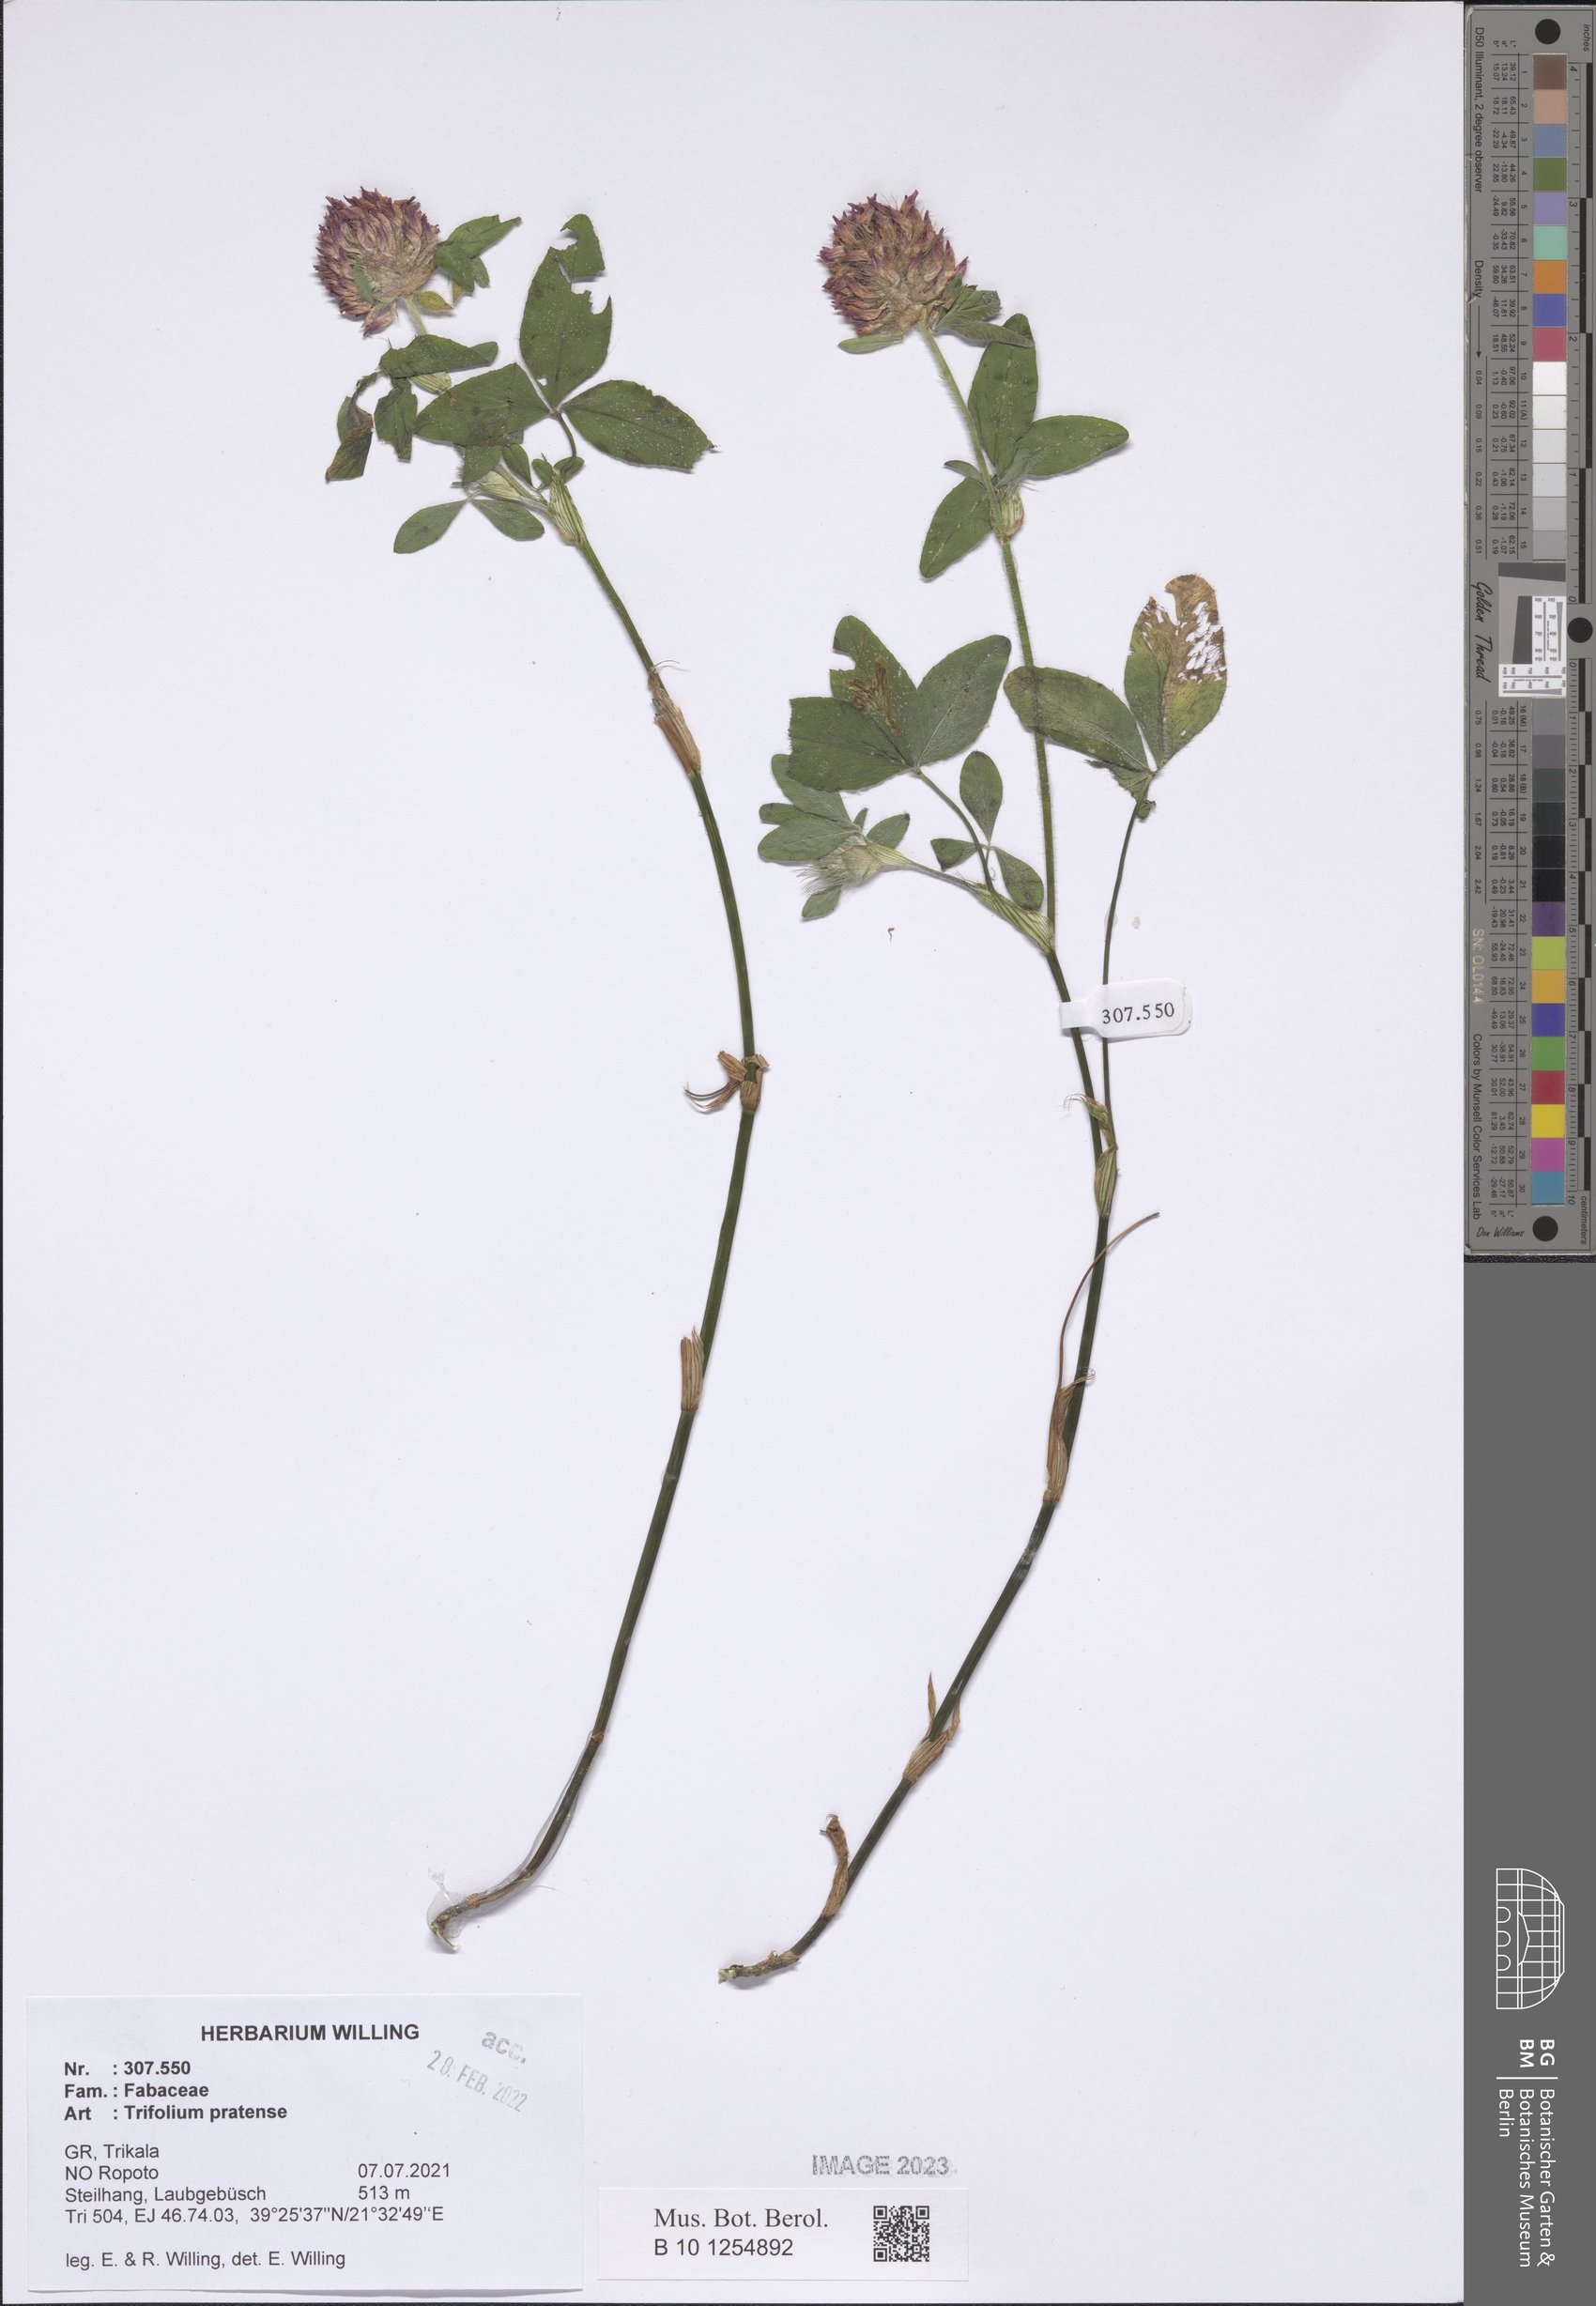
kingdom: Plantae
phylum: Tracheophyta
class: Magnoliopsida
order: Fabales
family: Fabaceae
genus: Trifolium
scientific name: Trifolium pratense
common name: Red clover
